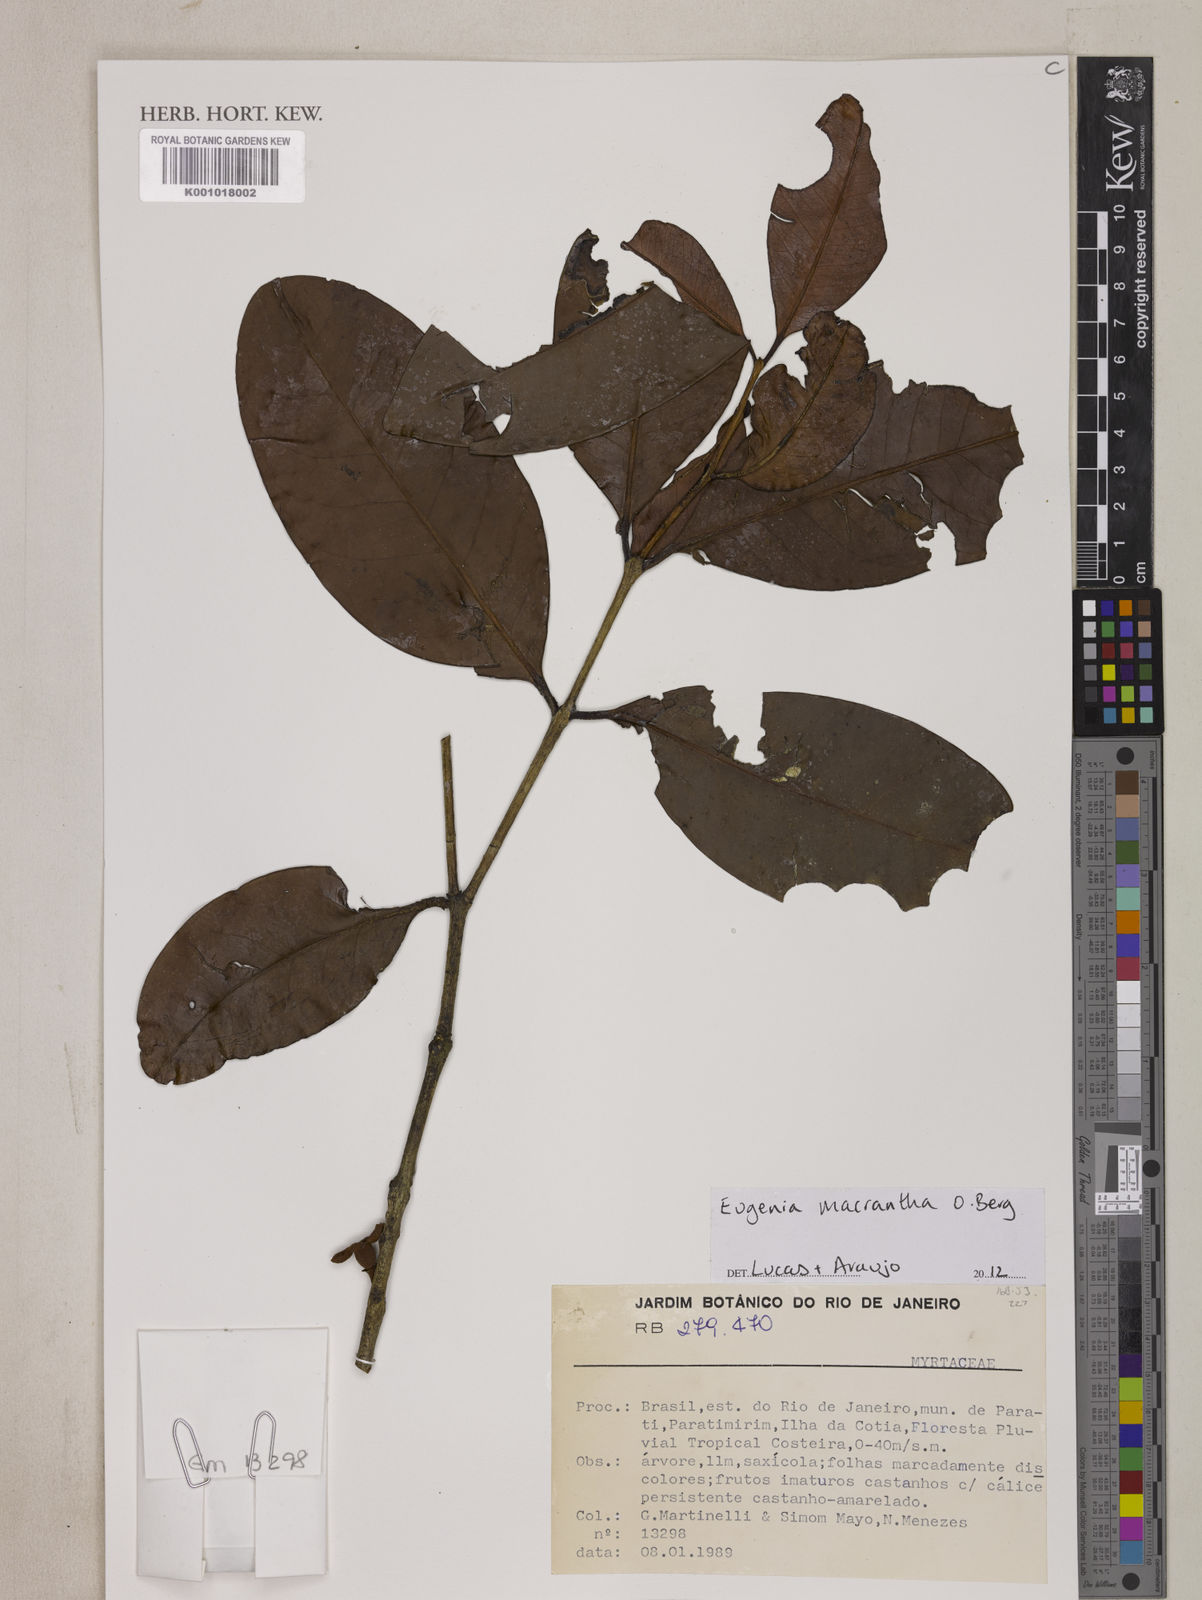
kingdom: Plantae
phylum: Tracheophyta
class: Magnoliopsida
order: Myrtales
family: Myrtaceae
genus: Eugenia
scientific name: Eugenia macrantha
